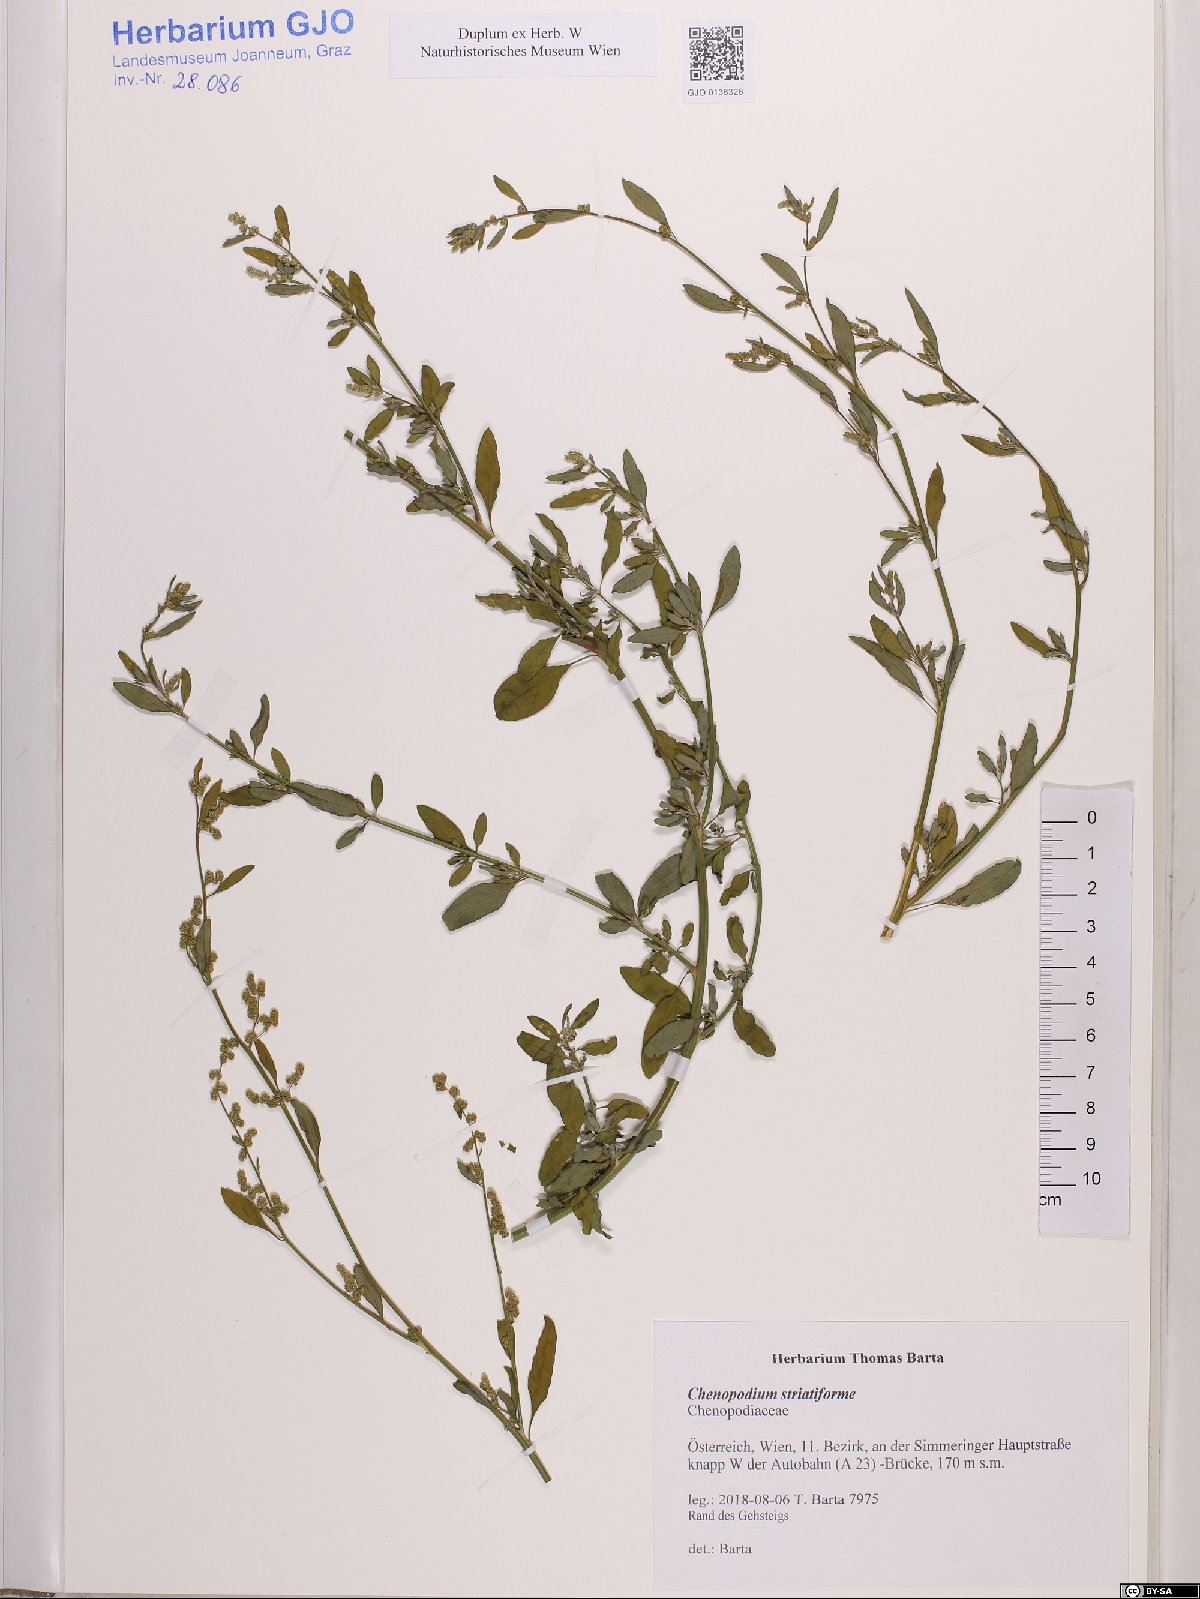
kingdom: Plantae
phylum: Tracheophyta
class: Magnoliopsida
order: Caryophyllales
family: Amaranthaceae
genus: Chenopodium
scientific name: Chenopodium striatiforme
